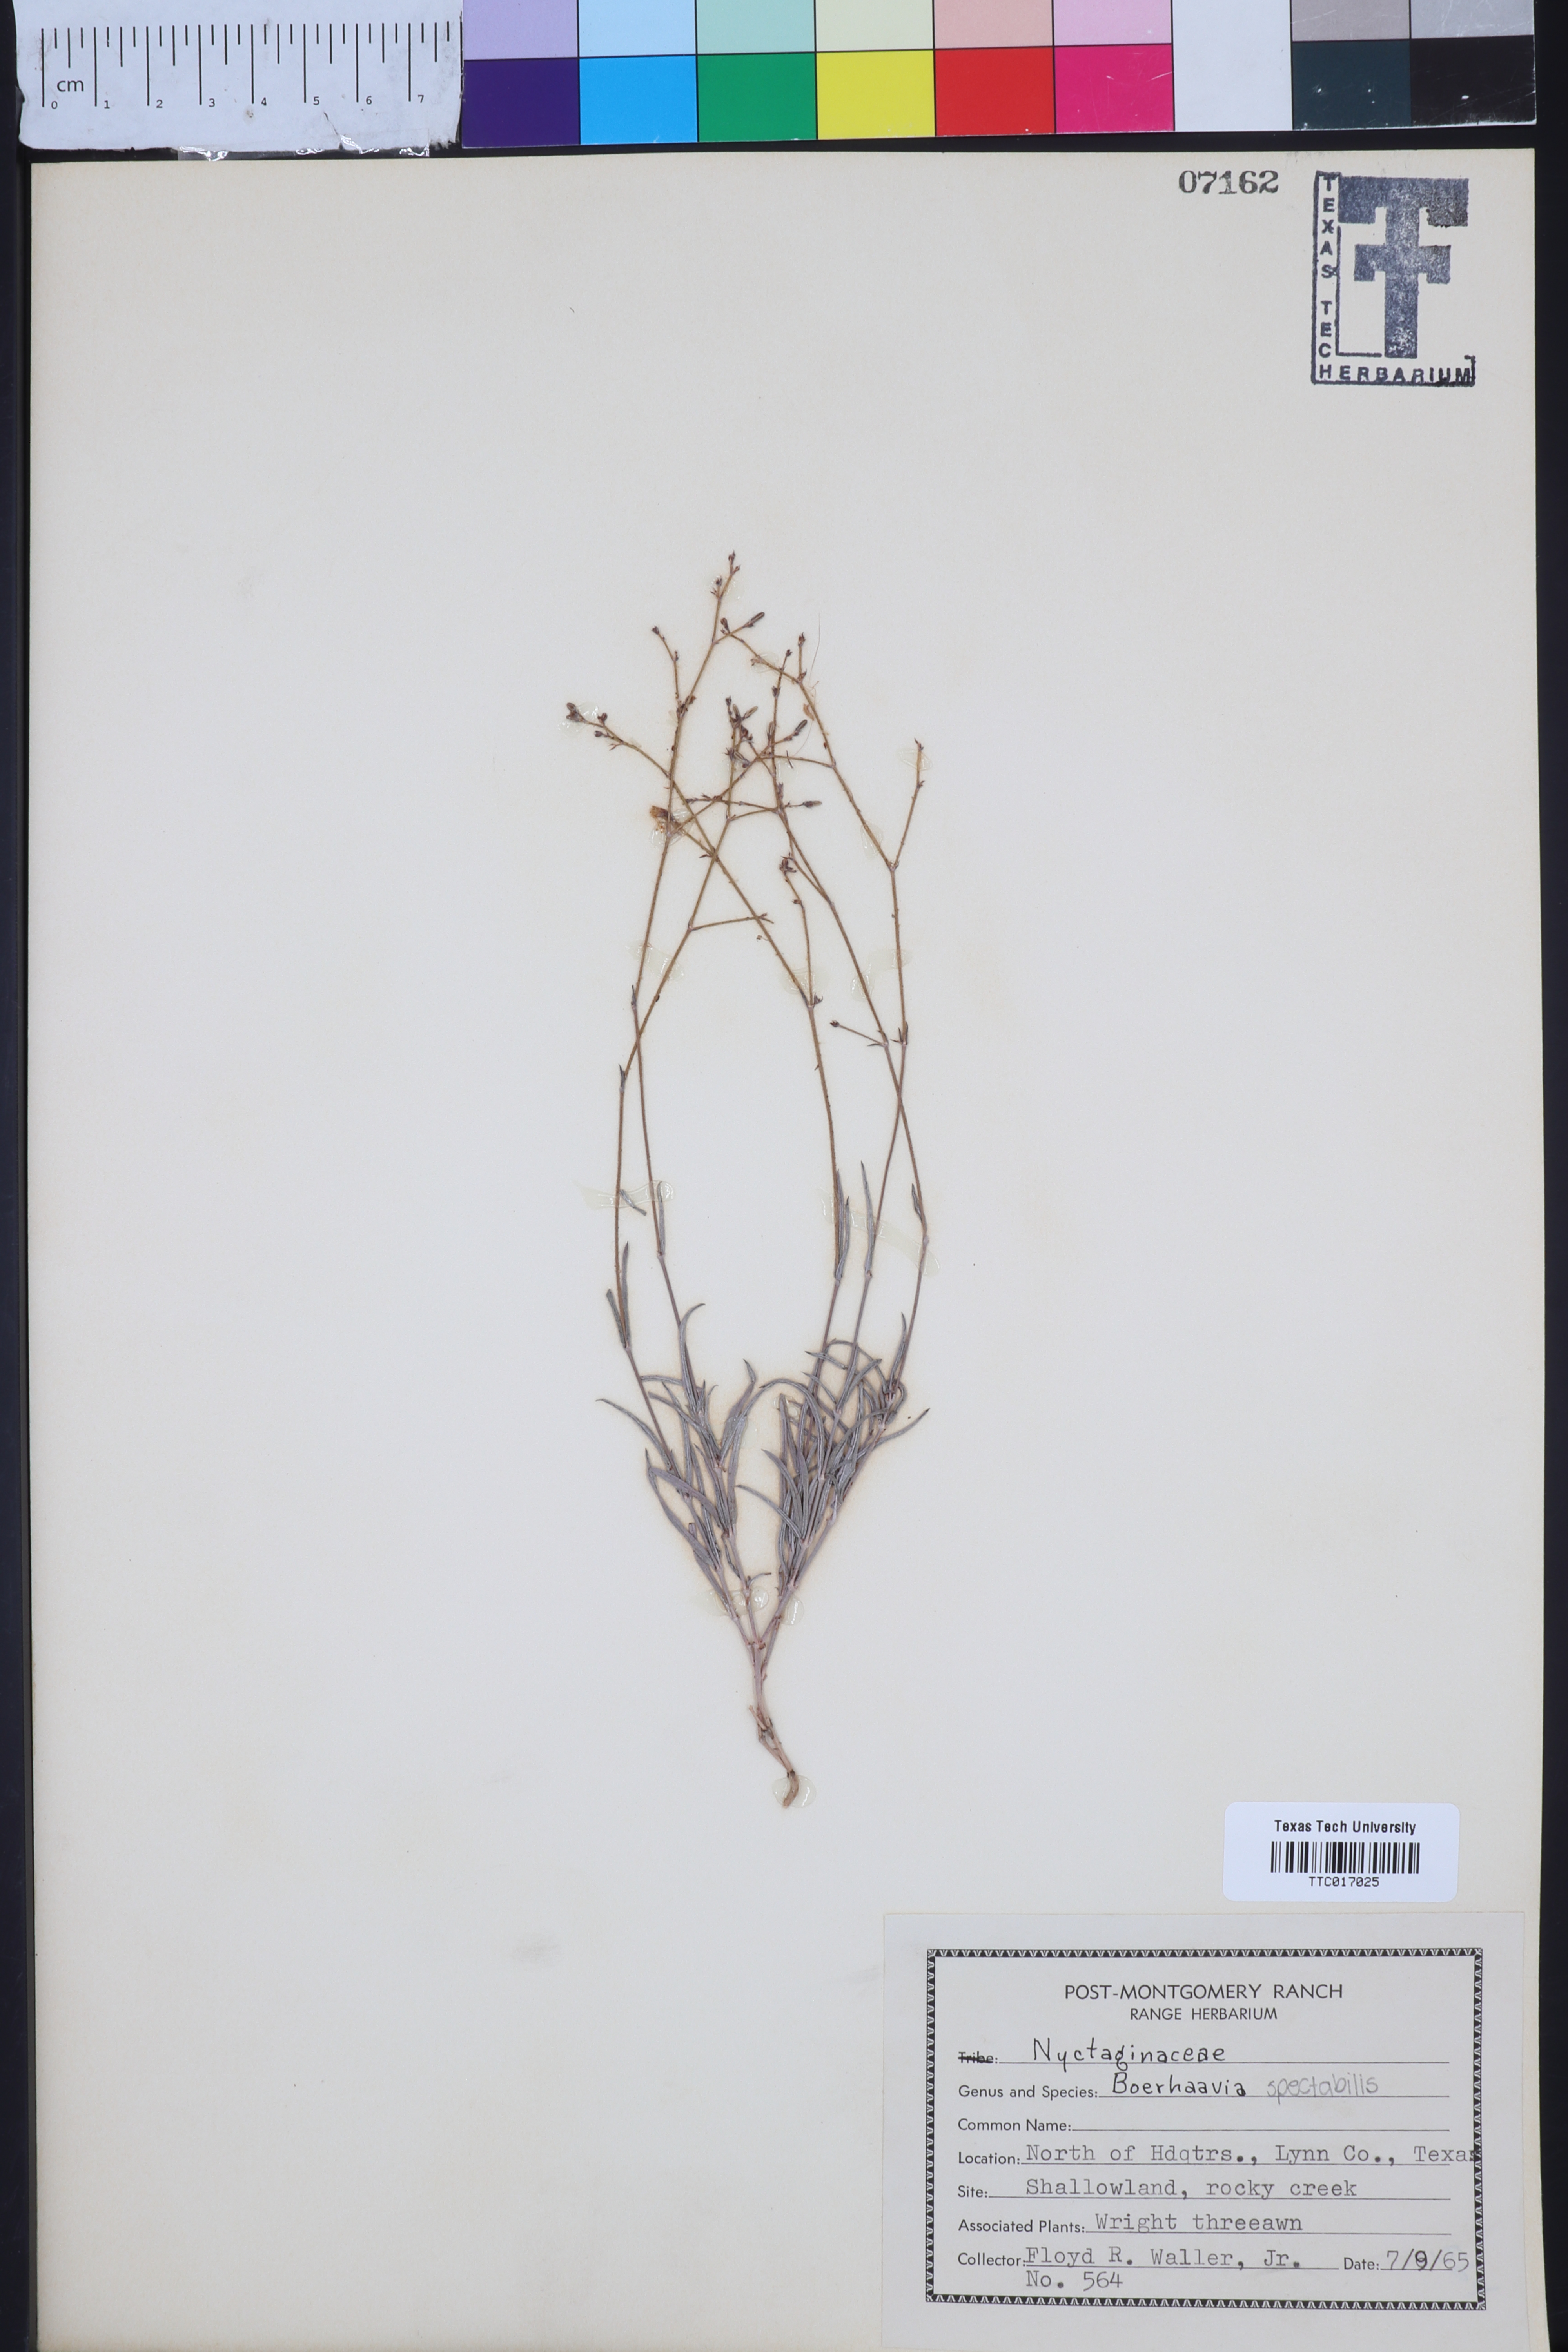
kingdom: Plantae
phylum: Tracheophyta
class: Magnoliopsida
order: Caryophyllales
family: Nyctaginaceae
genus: Boerhavia
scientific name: Boerhavia
